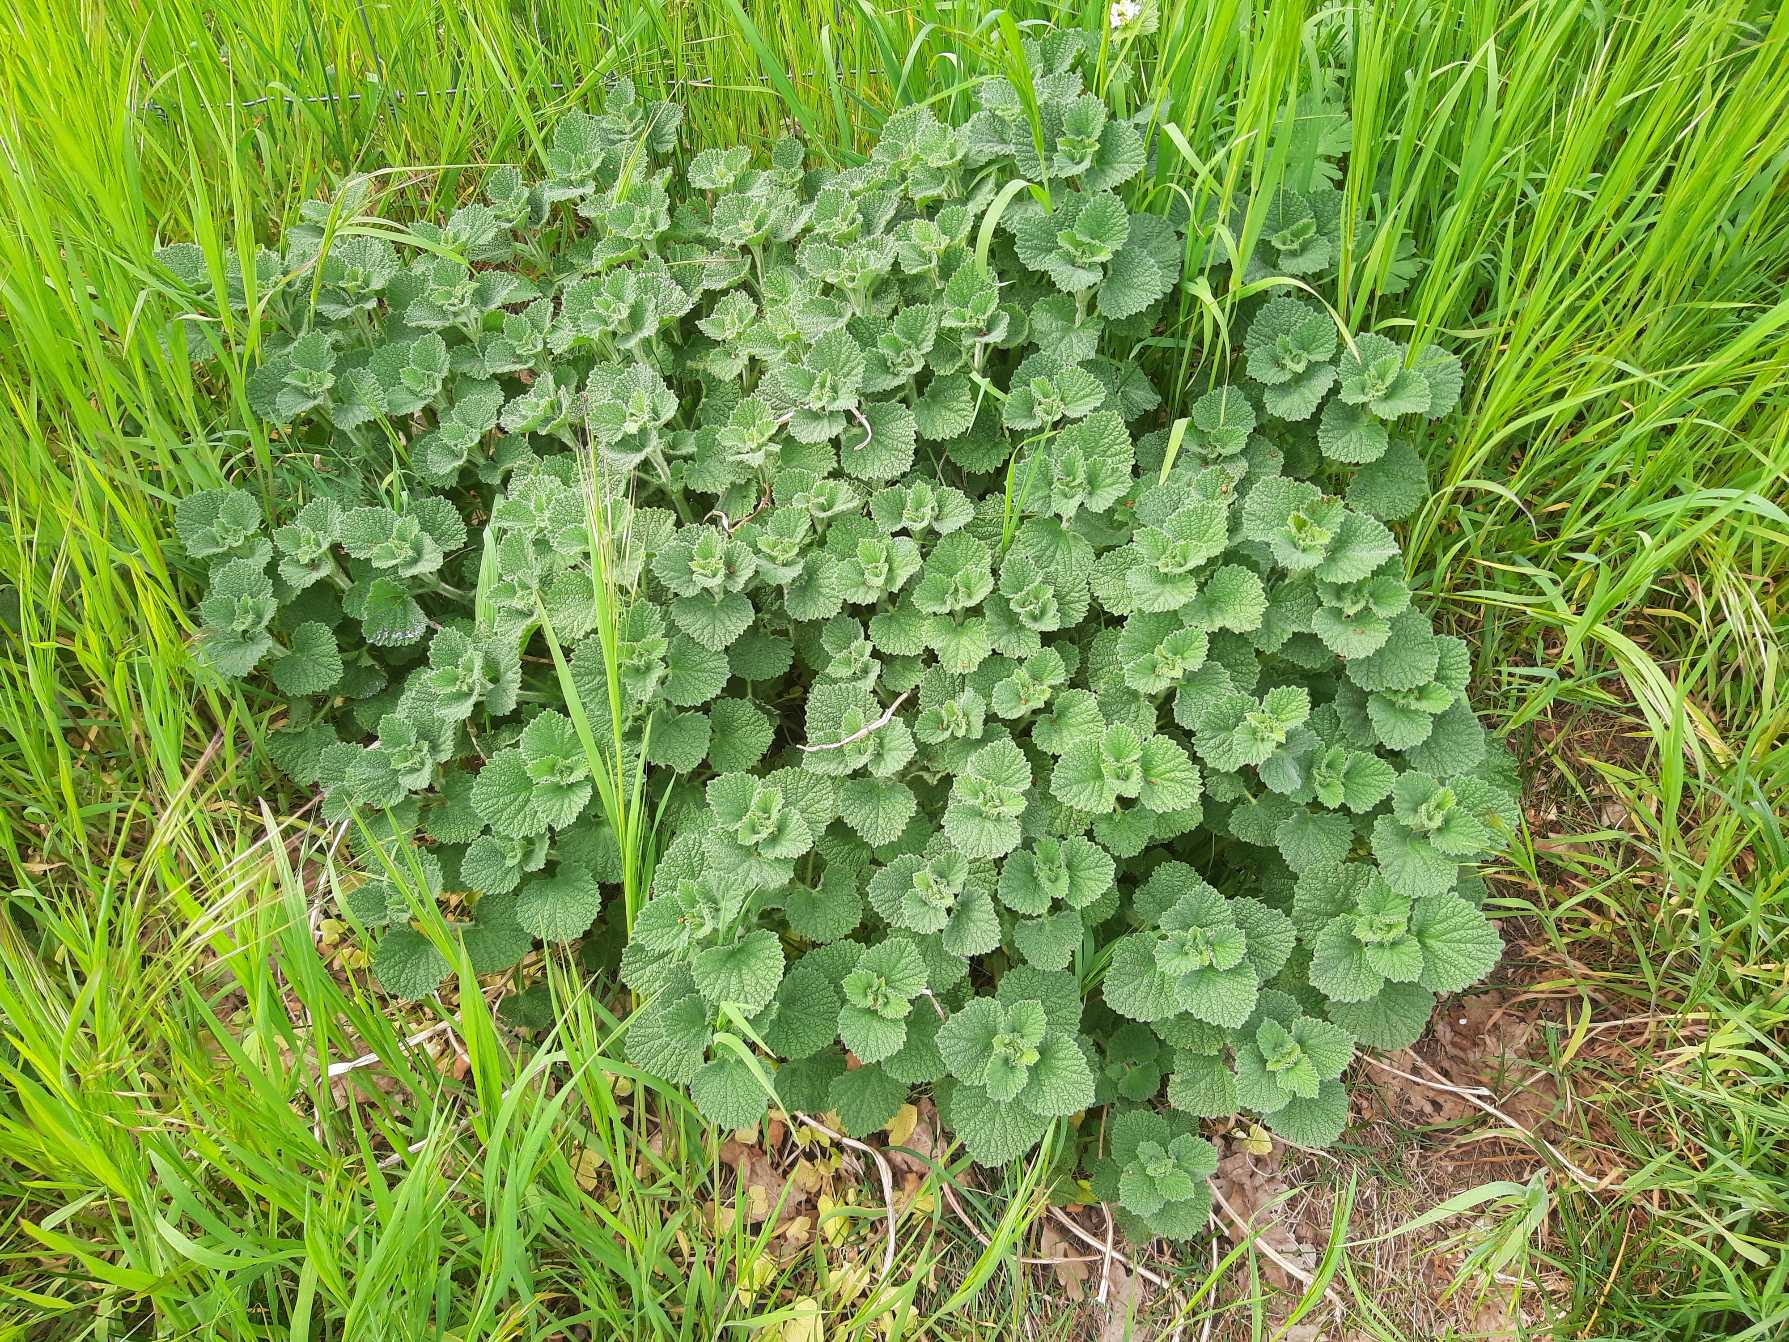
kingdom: Plantae
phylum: Tracheophyta
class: Magnoliopsida
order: Lamiales
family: Lamiaceae
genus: Ballota
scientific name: Ballota nigra
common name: Tandbæger
